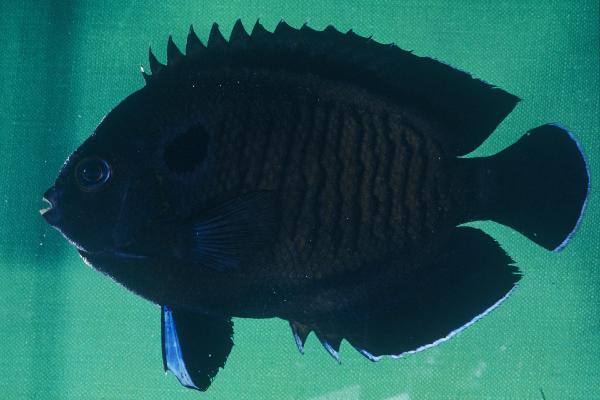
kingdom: Animalia
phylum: Chordata
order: Perciformes
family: Pomacanthidae
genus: Centropyge
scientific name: Centropyge multispinis
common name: Many-spined angelfish
